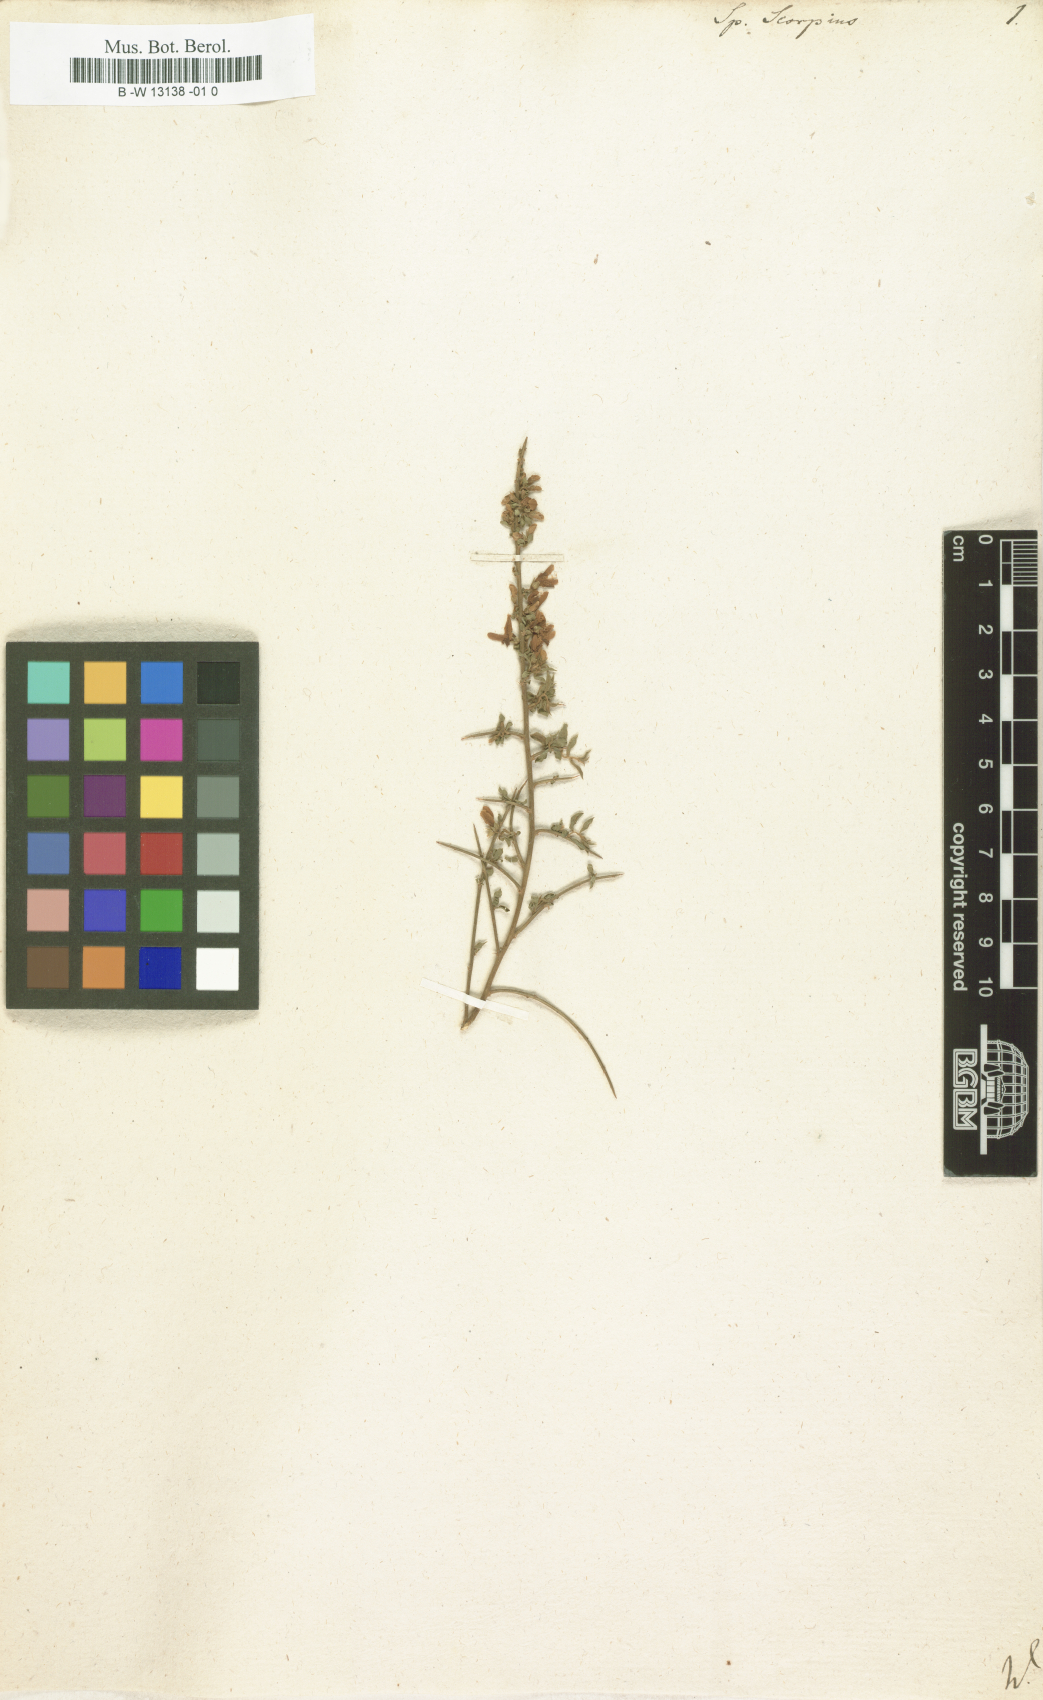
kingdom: Plantae
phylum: Tracheophyta
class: Magnoliopsida
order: Fabales
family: Fabaceae
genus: Genista
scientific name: Genista scorpius
